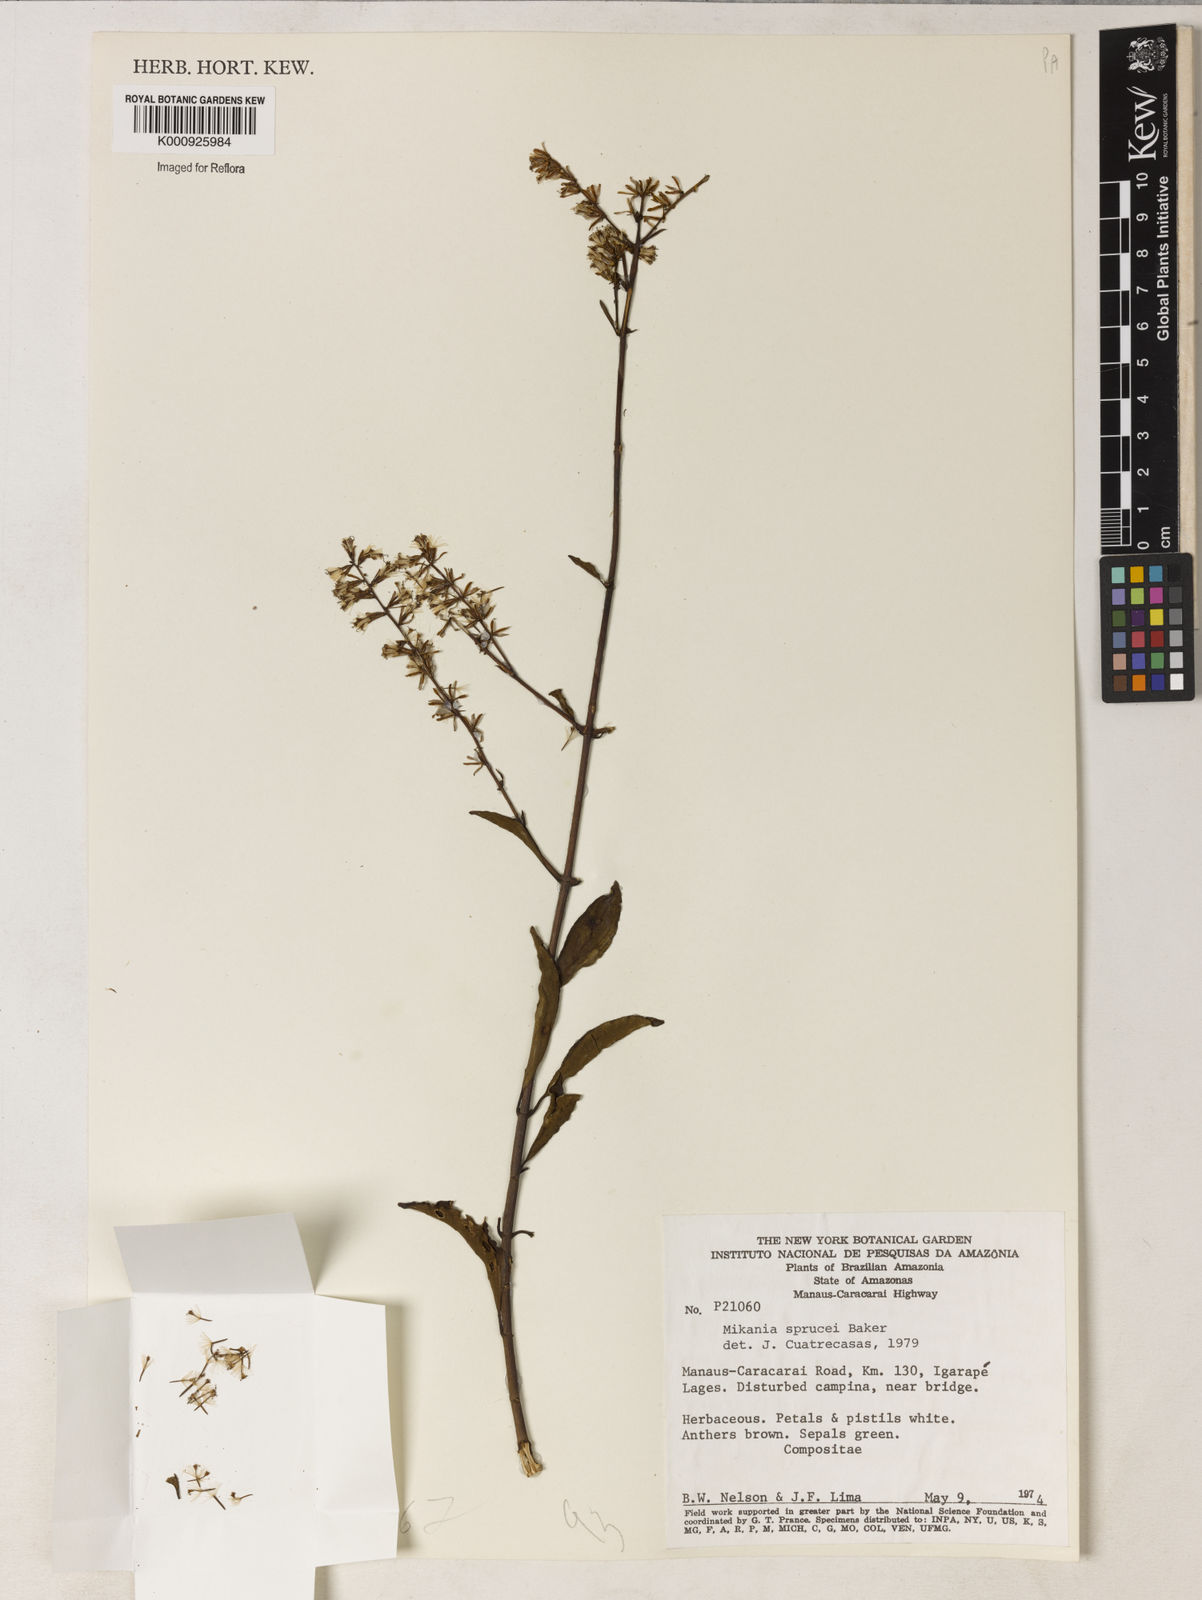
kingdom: Plantae
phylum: Tracheophyta
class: Magnoliopsida
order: Asterales
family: Asteraceae
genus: Mikania
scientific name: Mikania
